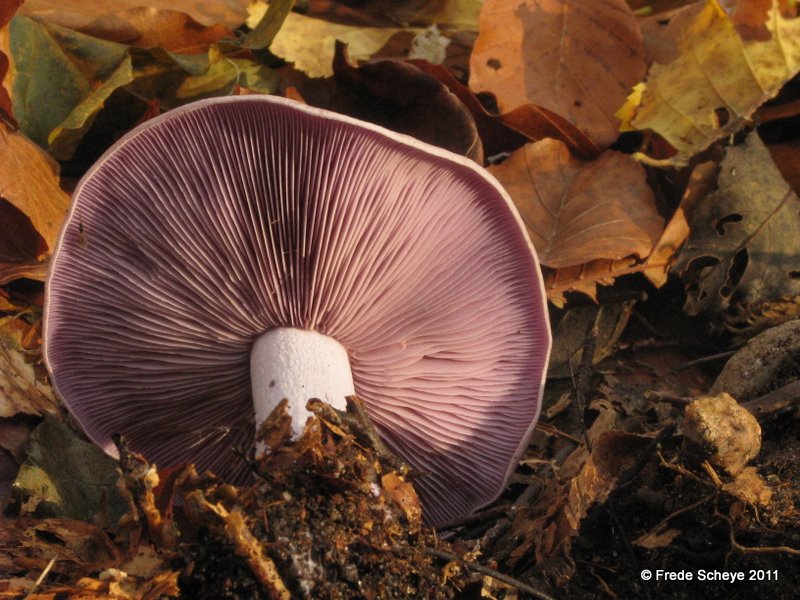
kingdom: Fungi
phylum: Basidiomycota
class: Agaricomycetes
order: Agaricales
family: Tricholomataceae
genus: Lepista
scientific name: Lepista nuda
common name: violet hekseringshat
